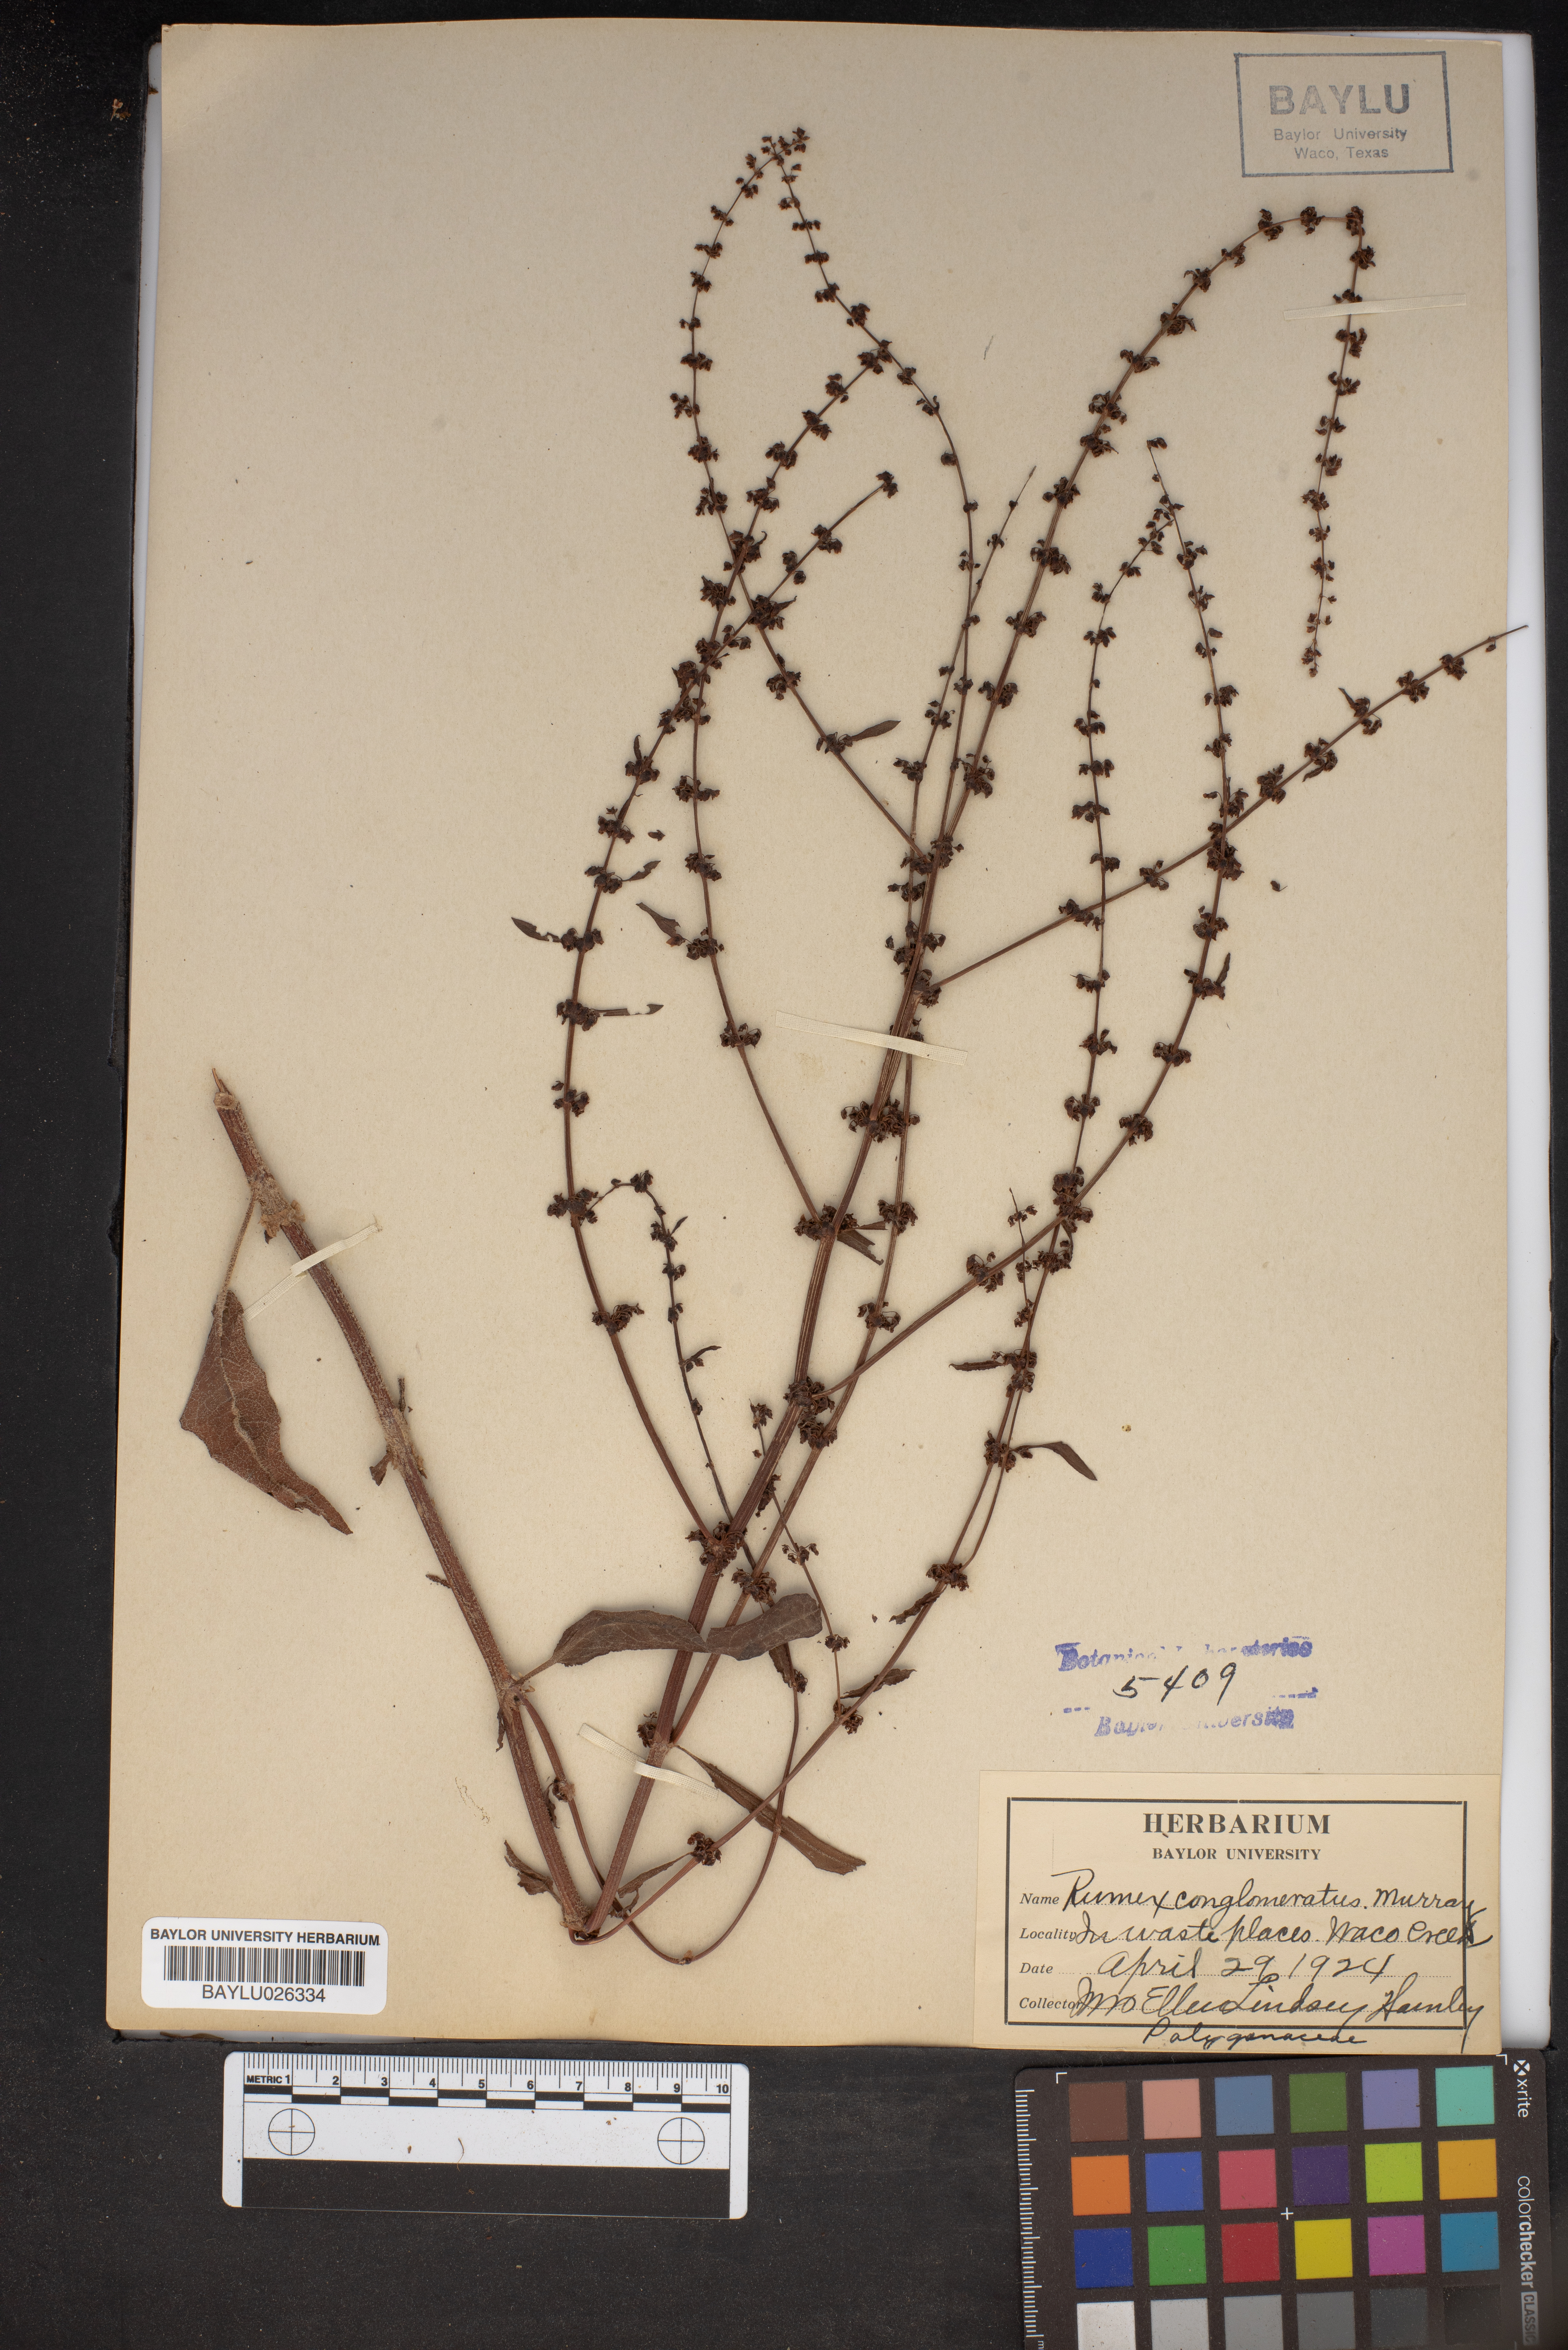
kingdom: Plantae
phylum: Tracheophyta
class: Magnoliopsida
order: Caryophyllales
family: Polygonaceae
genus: Rumex
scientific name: Rumex conglomeratus
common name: Clustered dock
